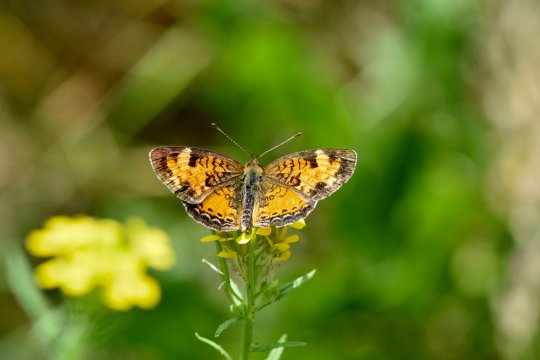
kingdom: Animalia
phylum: Arthropoda
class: Insecta
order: Lepidoptera
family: Nymphalidae
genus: Phyciodes
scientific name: Phyciodes tharos
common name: Pearl Crescent
